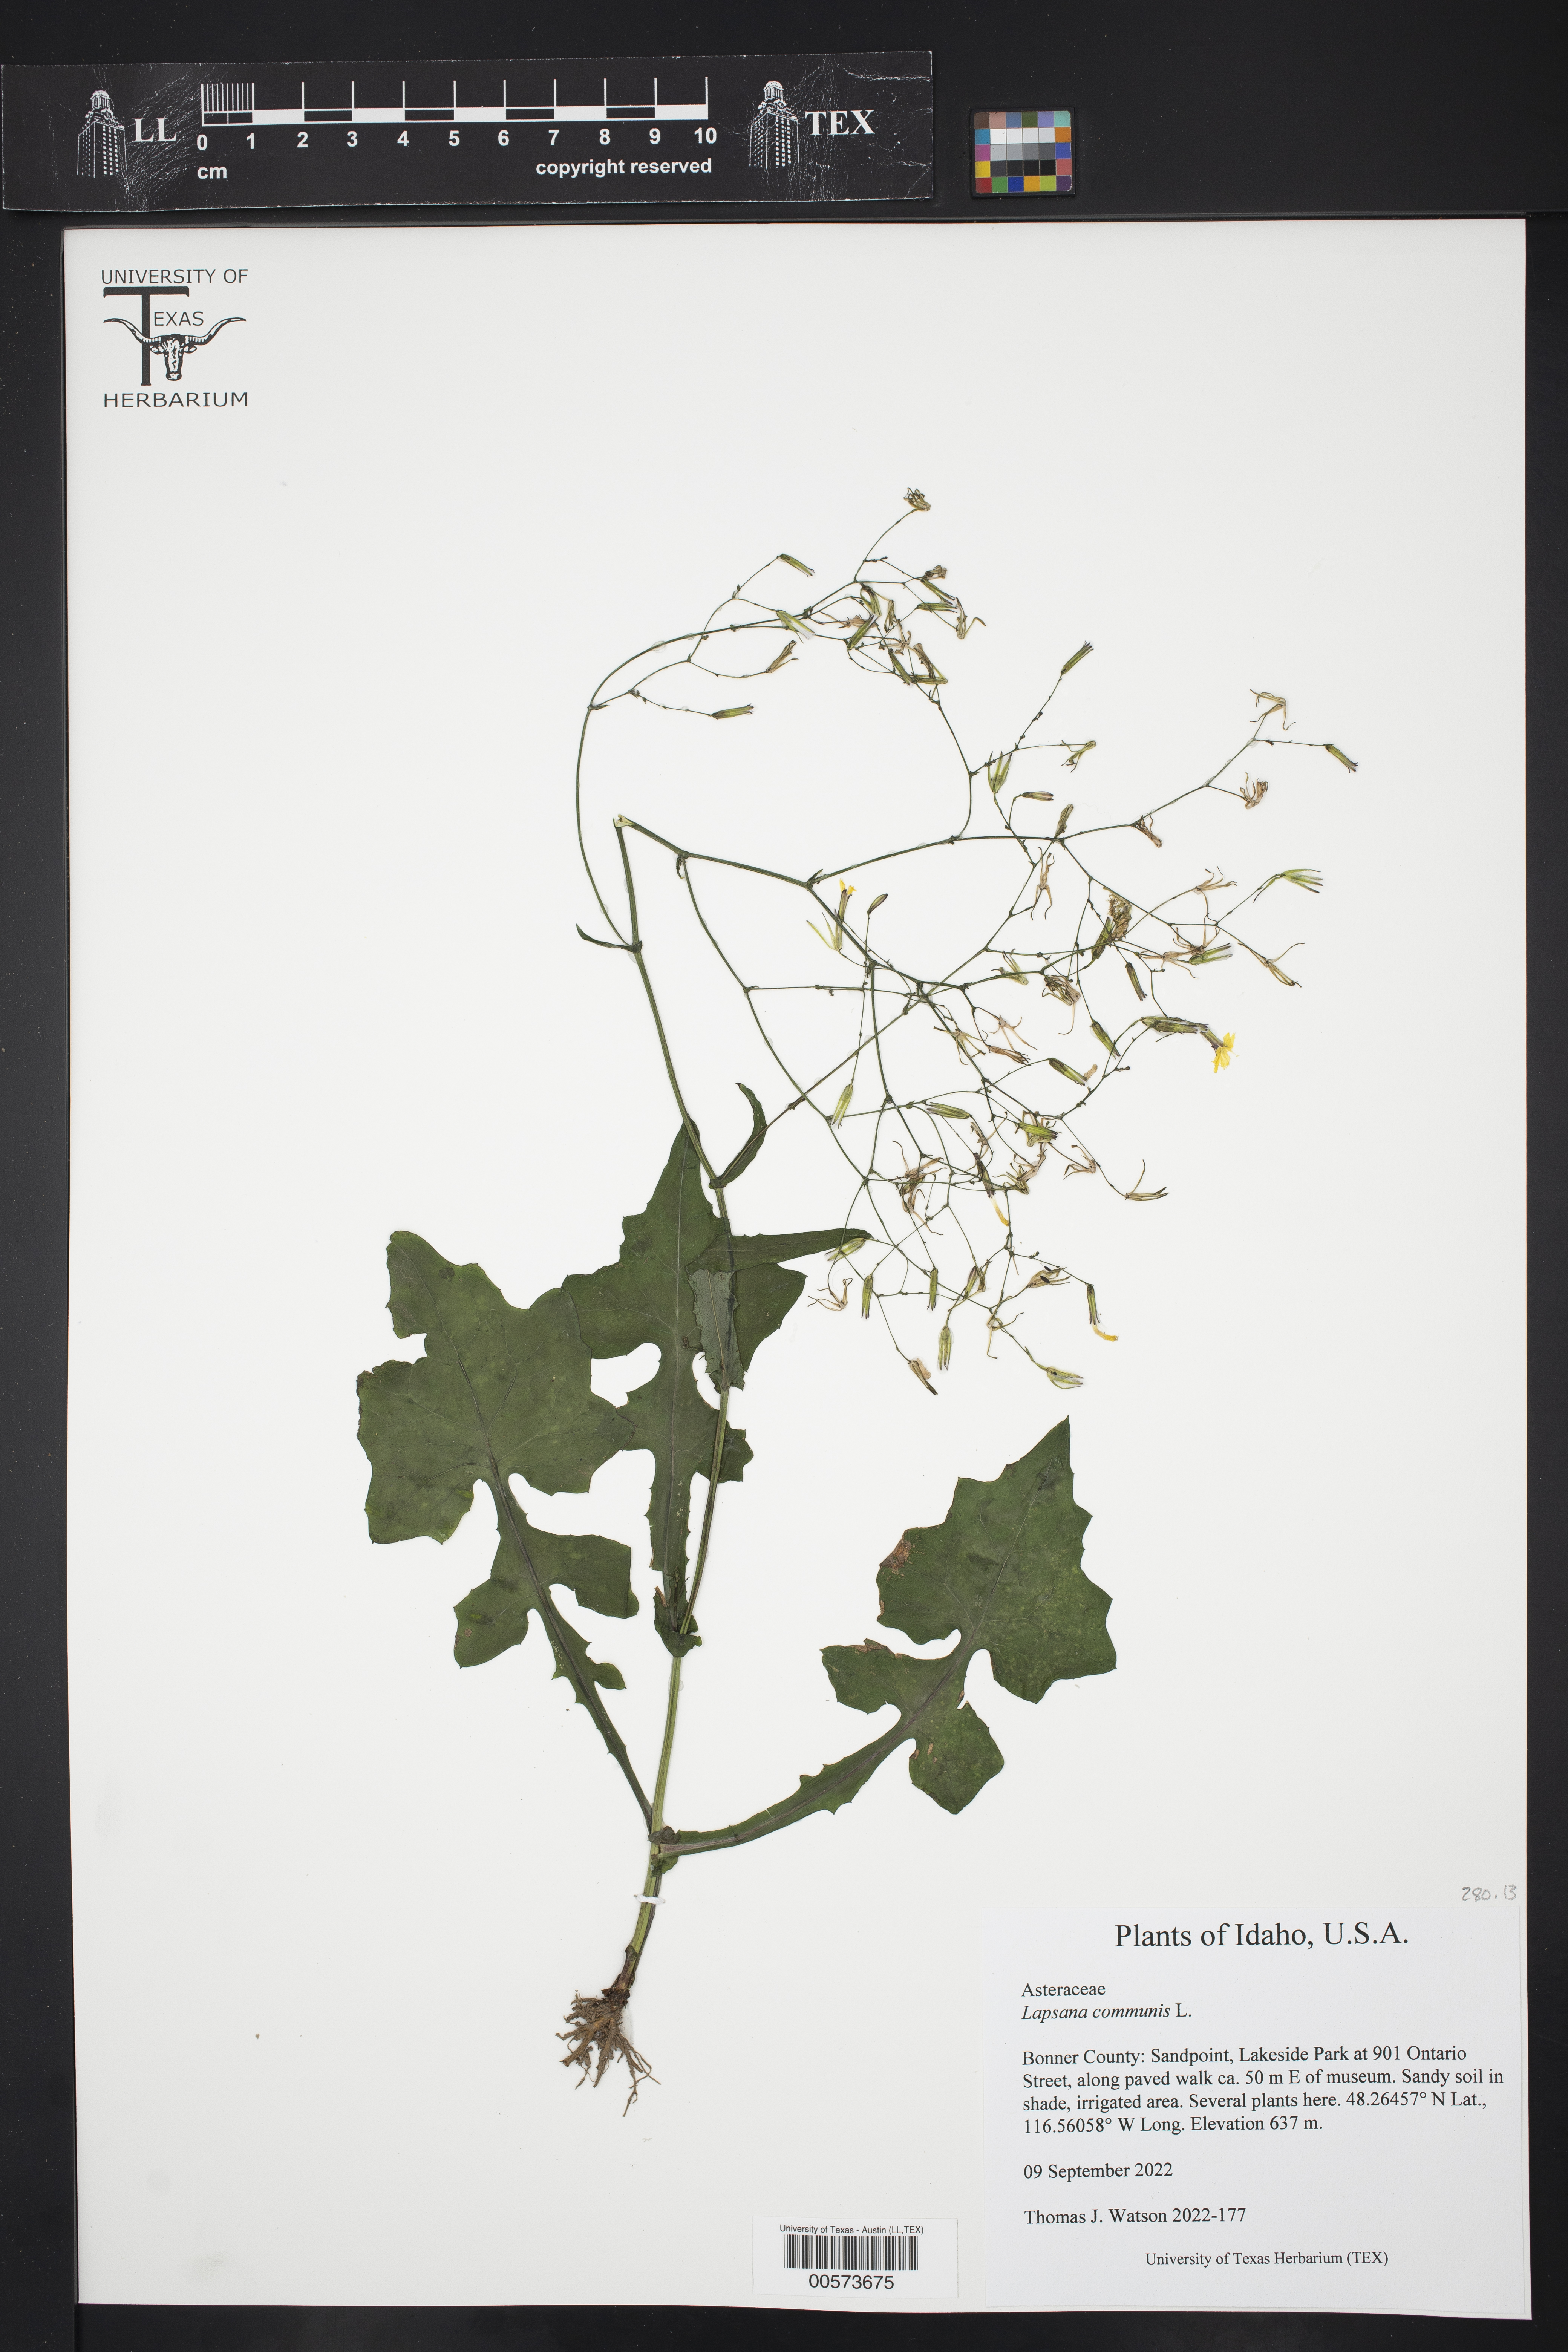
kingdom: Plantae
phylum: Tracheophyta
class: Magnoliopsida
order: Asterales
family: Asteraceae
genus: Lapsana
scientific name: Lapsana communis
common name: Nipplewort
